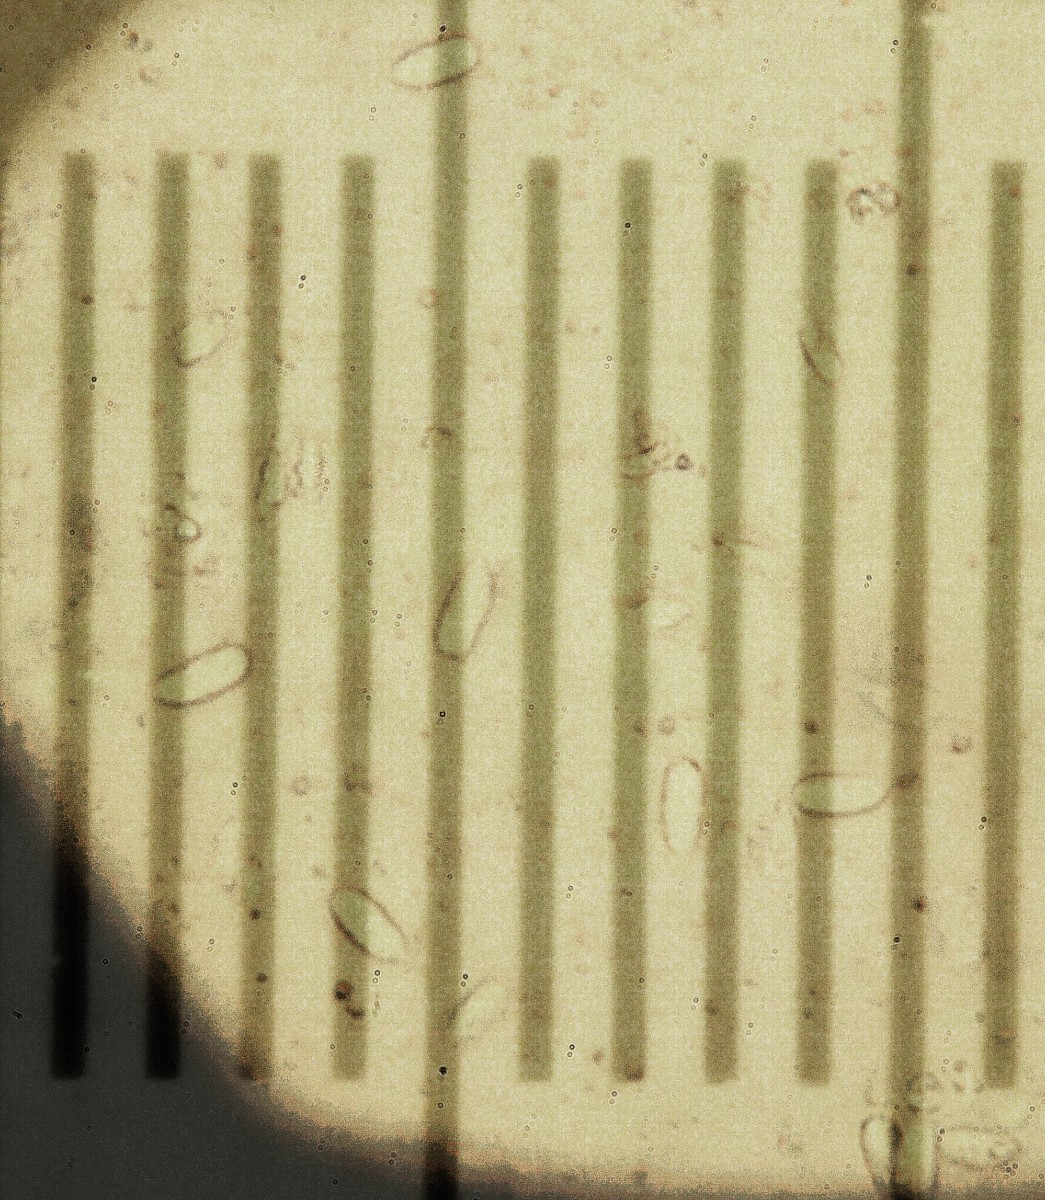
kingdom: Fungi
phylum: Basidiomycota
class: Agaricomycetes
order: Agaricales
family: Mycenaceae
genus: Mycena
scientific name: Mycena citrinomarginata
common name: gulægget huesvamp
